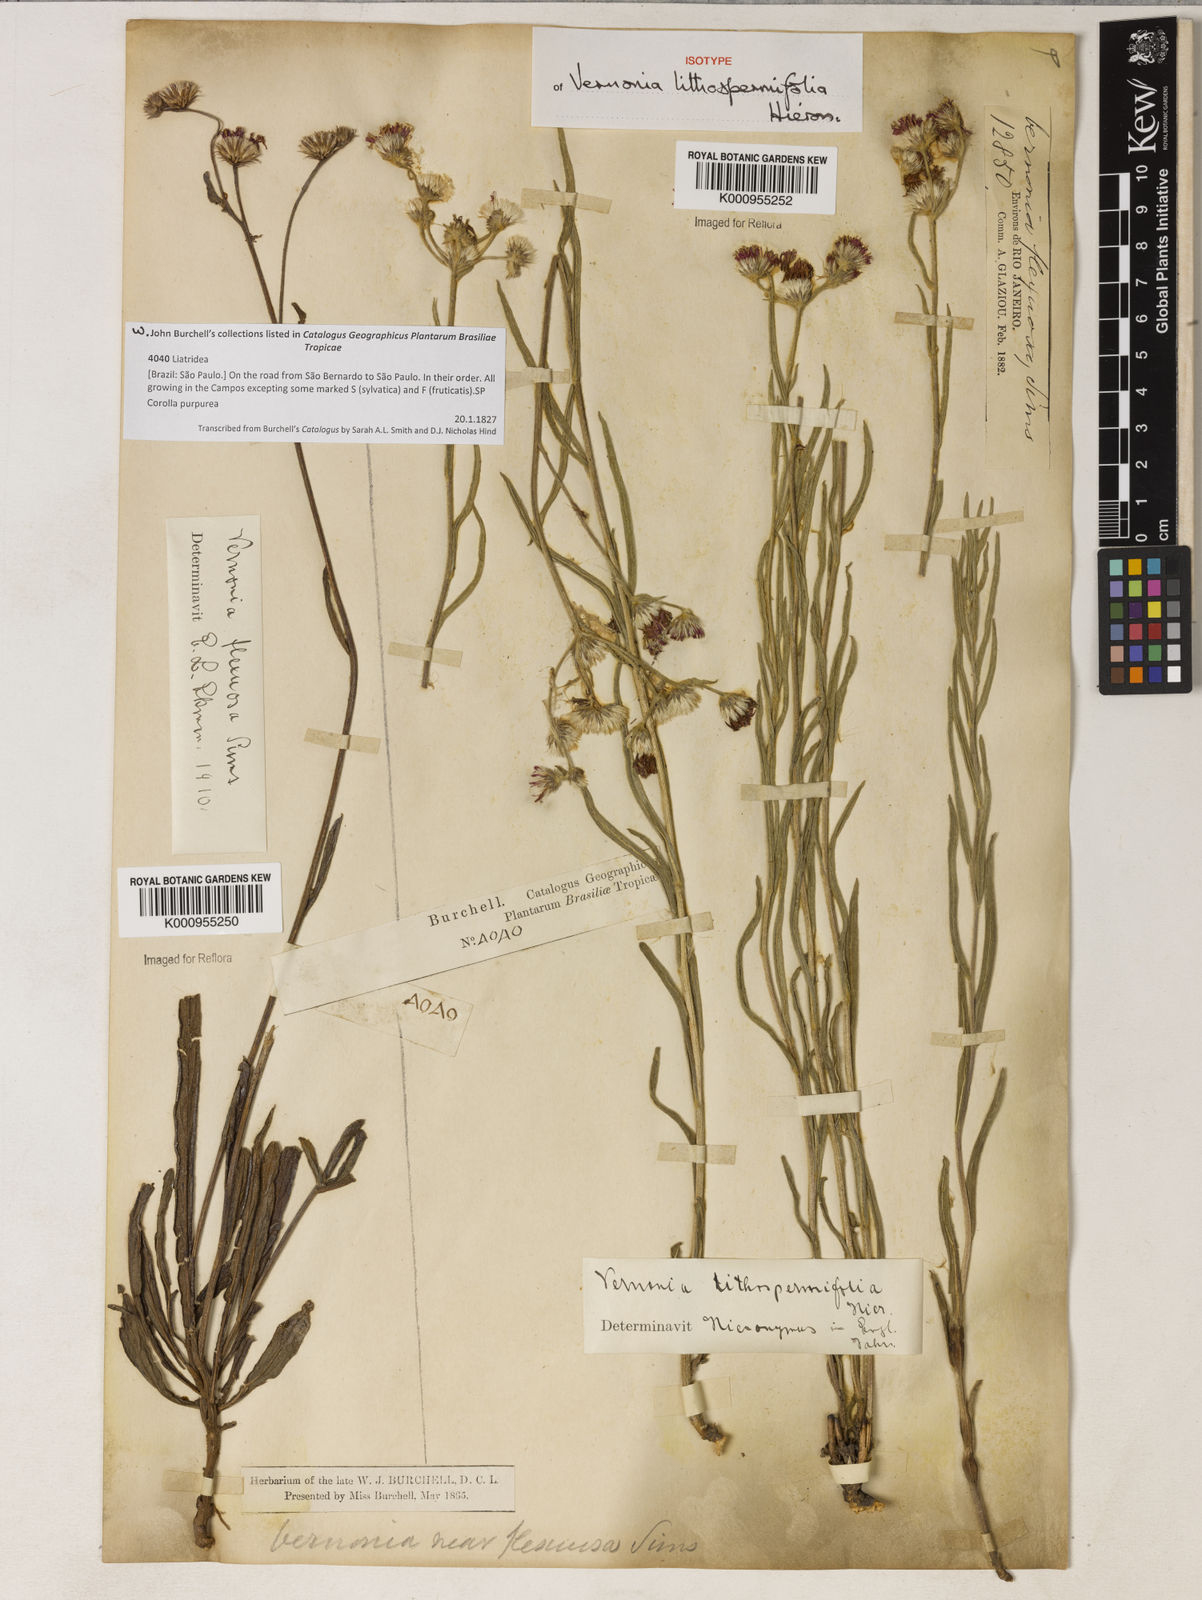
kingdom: Plantae
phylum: Tracheophyta
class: Magnoliopsida
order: Asterales
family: Asteraceae
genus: Chrysolaena
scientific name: Chrysolaena lithospermifolia
